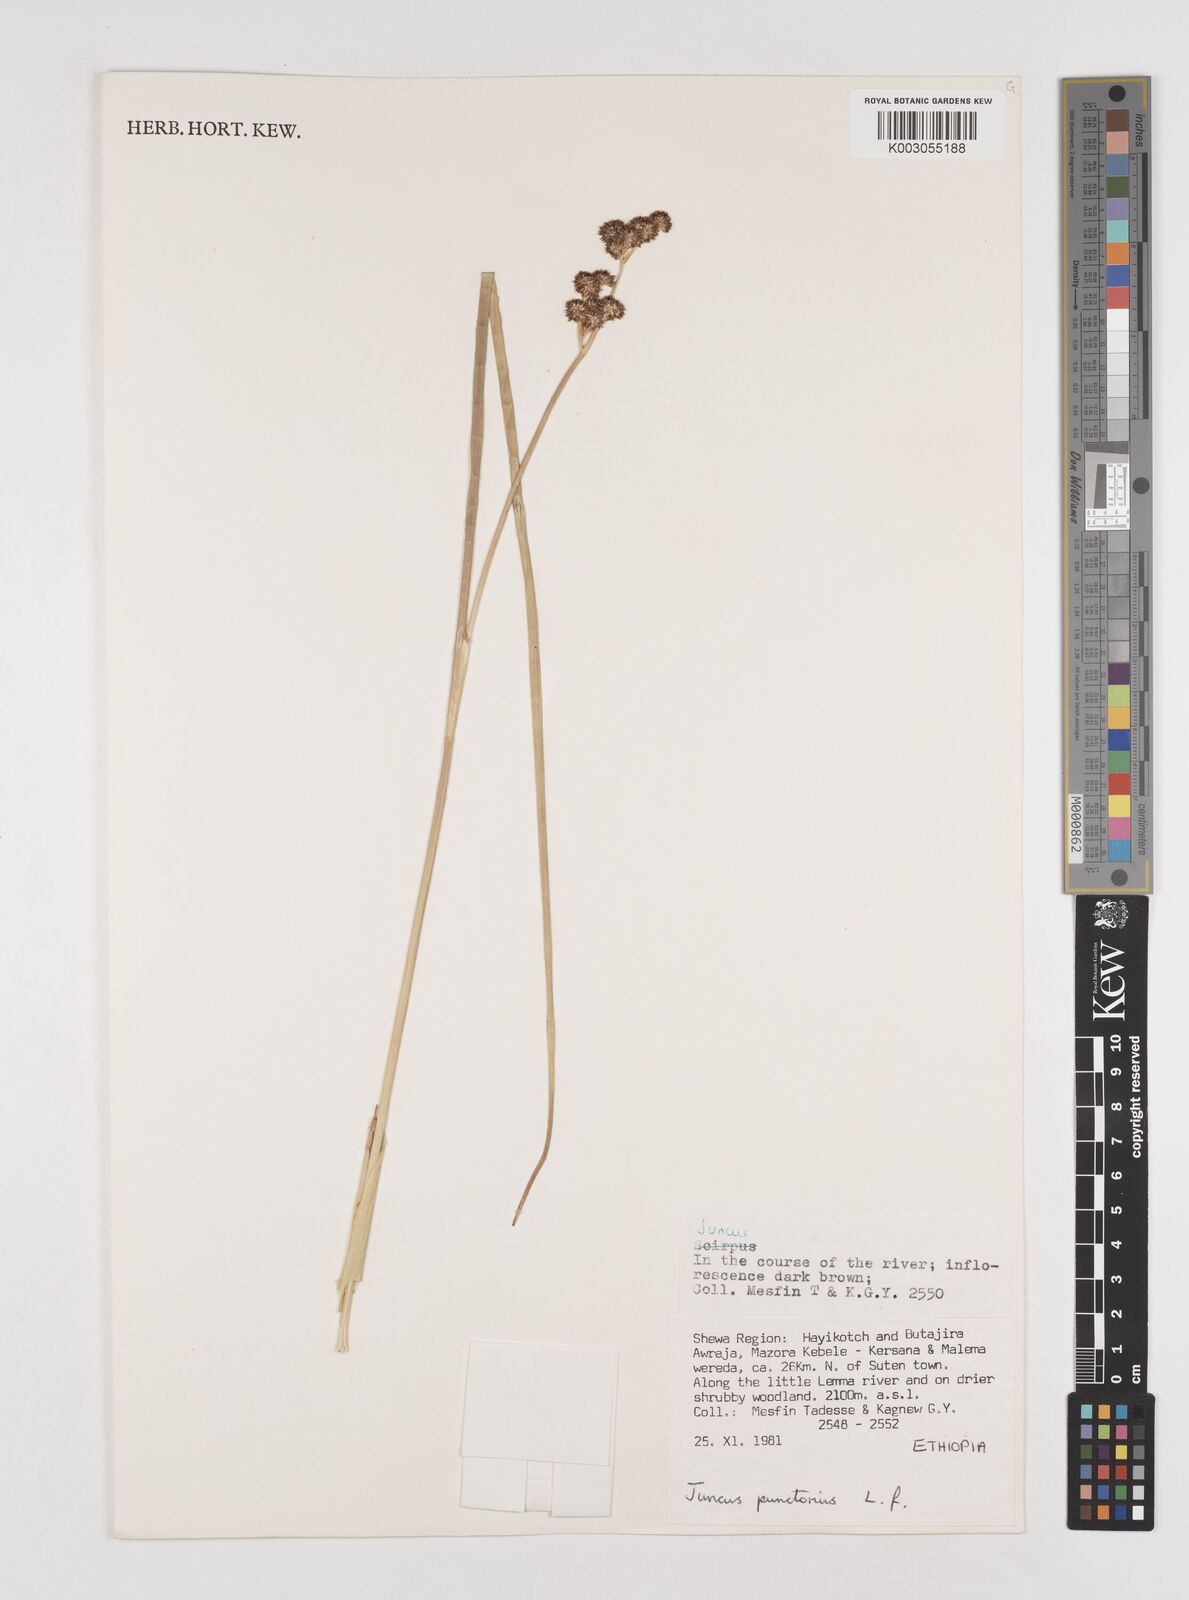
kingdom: Plantae
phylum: Tracheophyta
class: Liliopsida
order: Poales
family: Juncaceae
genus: Juncus
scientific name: Juncus punctorius
